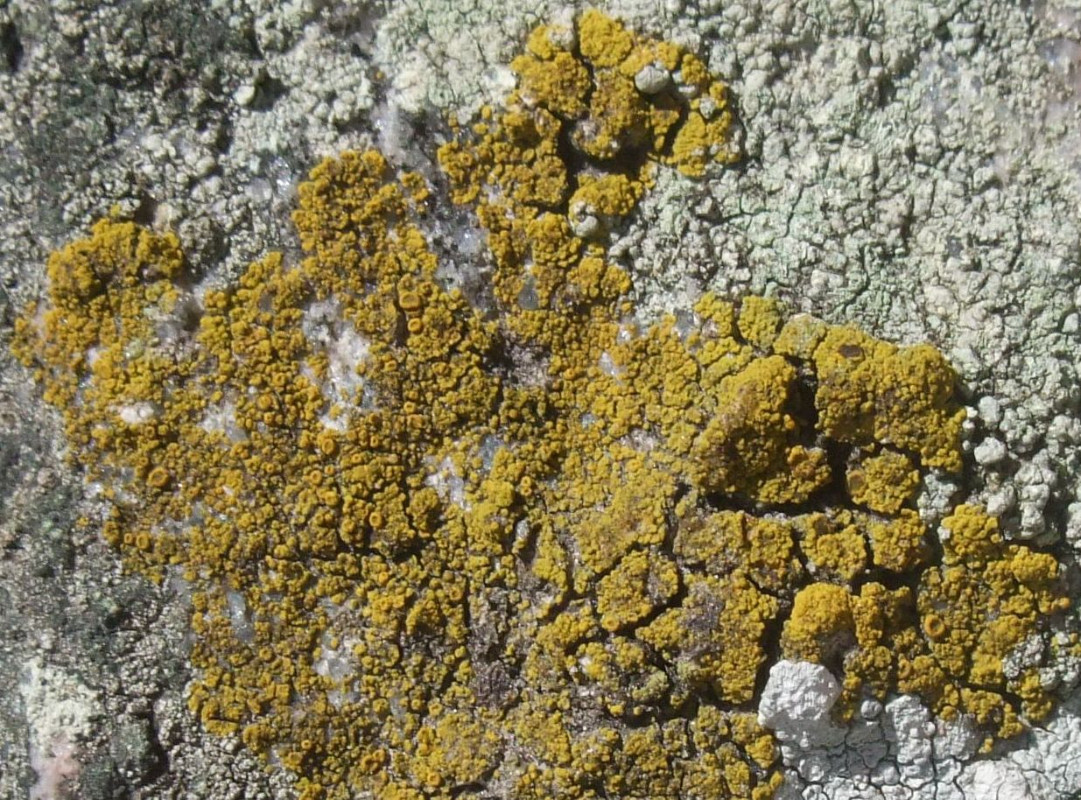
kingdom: Fungi
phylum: Ascomycota
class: Candelariomycetes
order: Candelariales
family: Candelariaceae
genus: Candelariella
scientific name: Candelariella vitellina
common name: almindelig æggeblommelav
